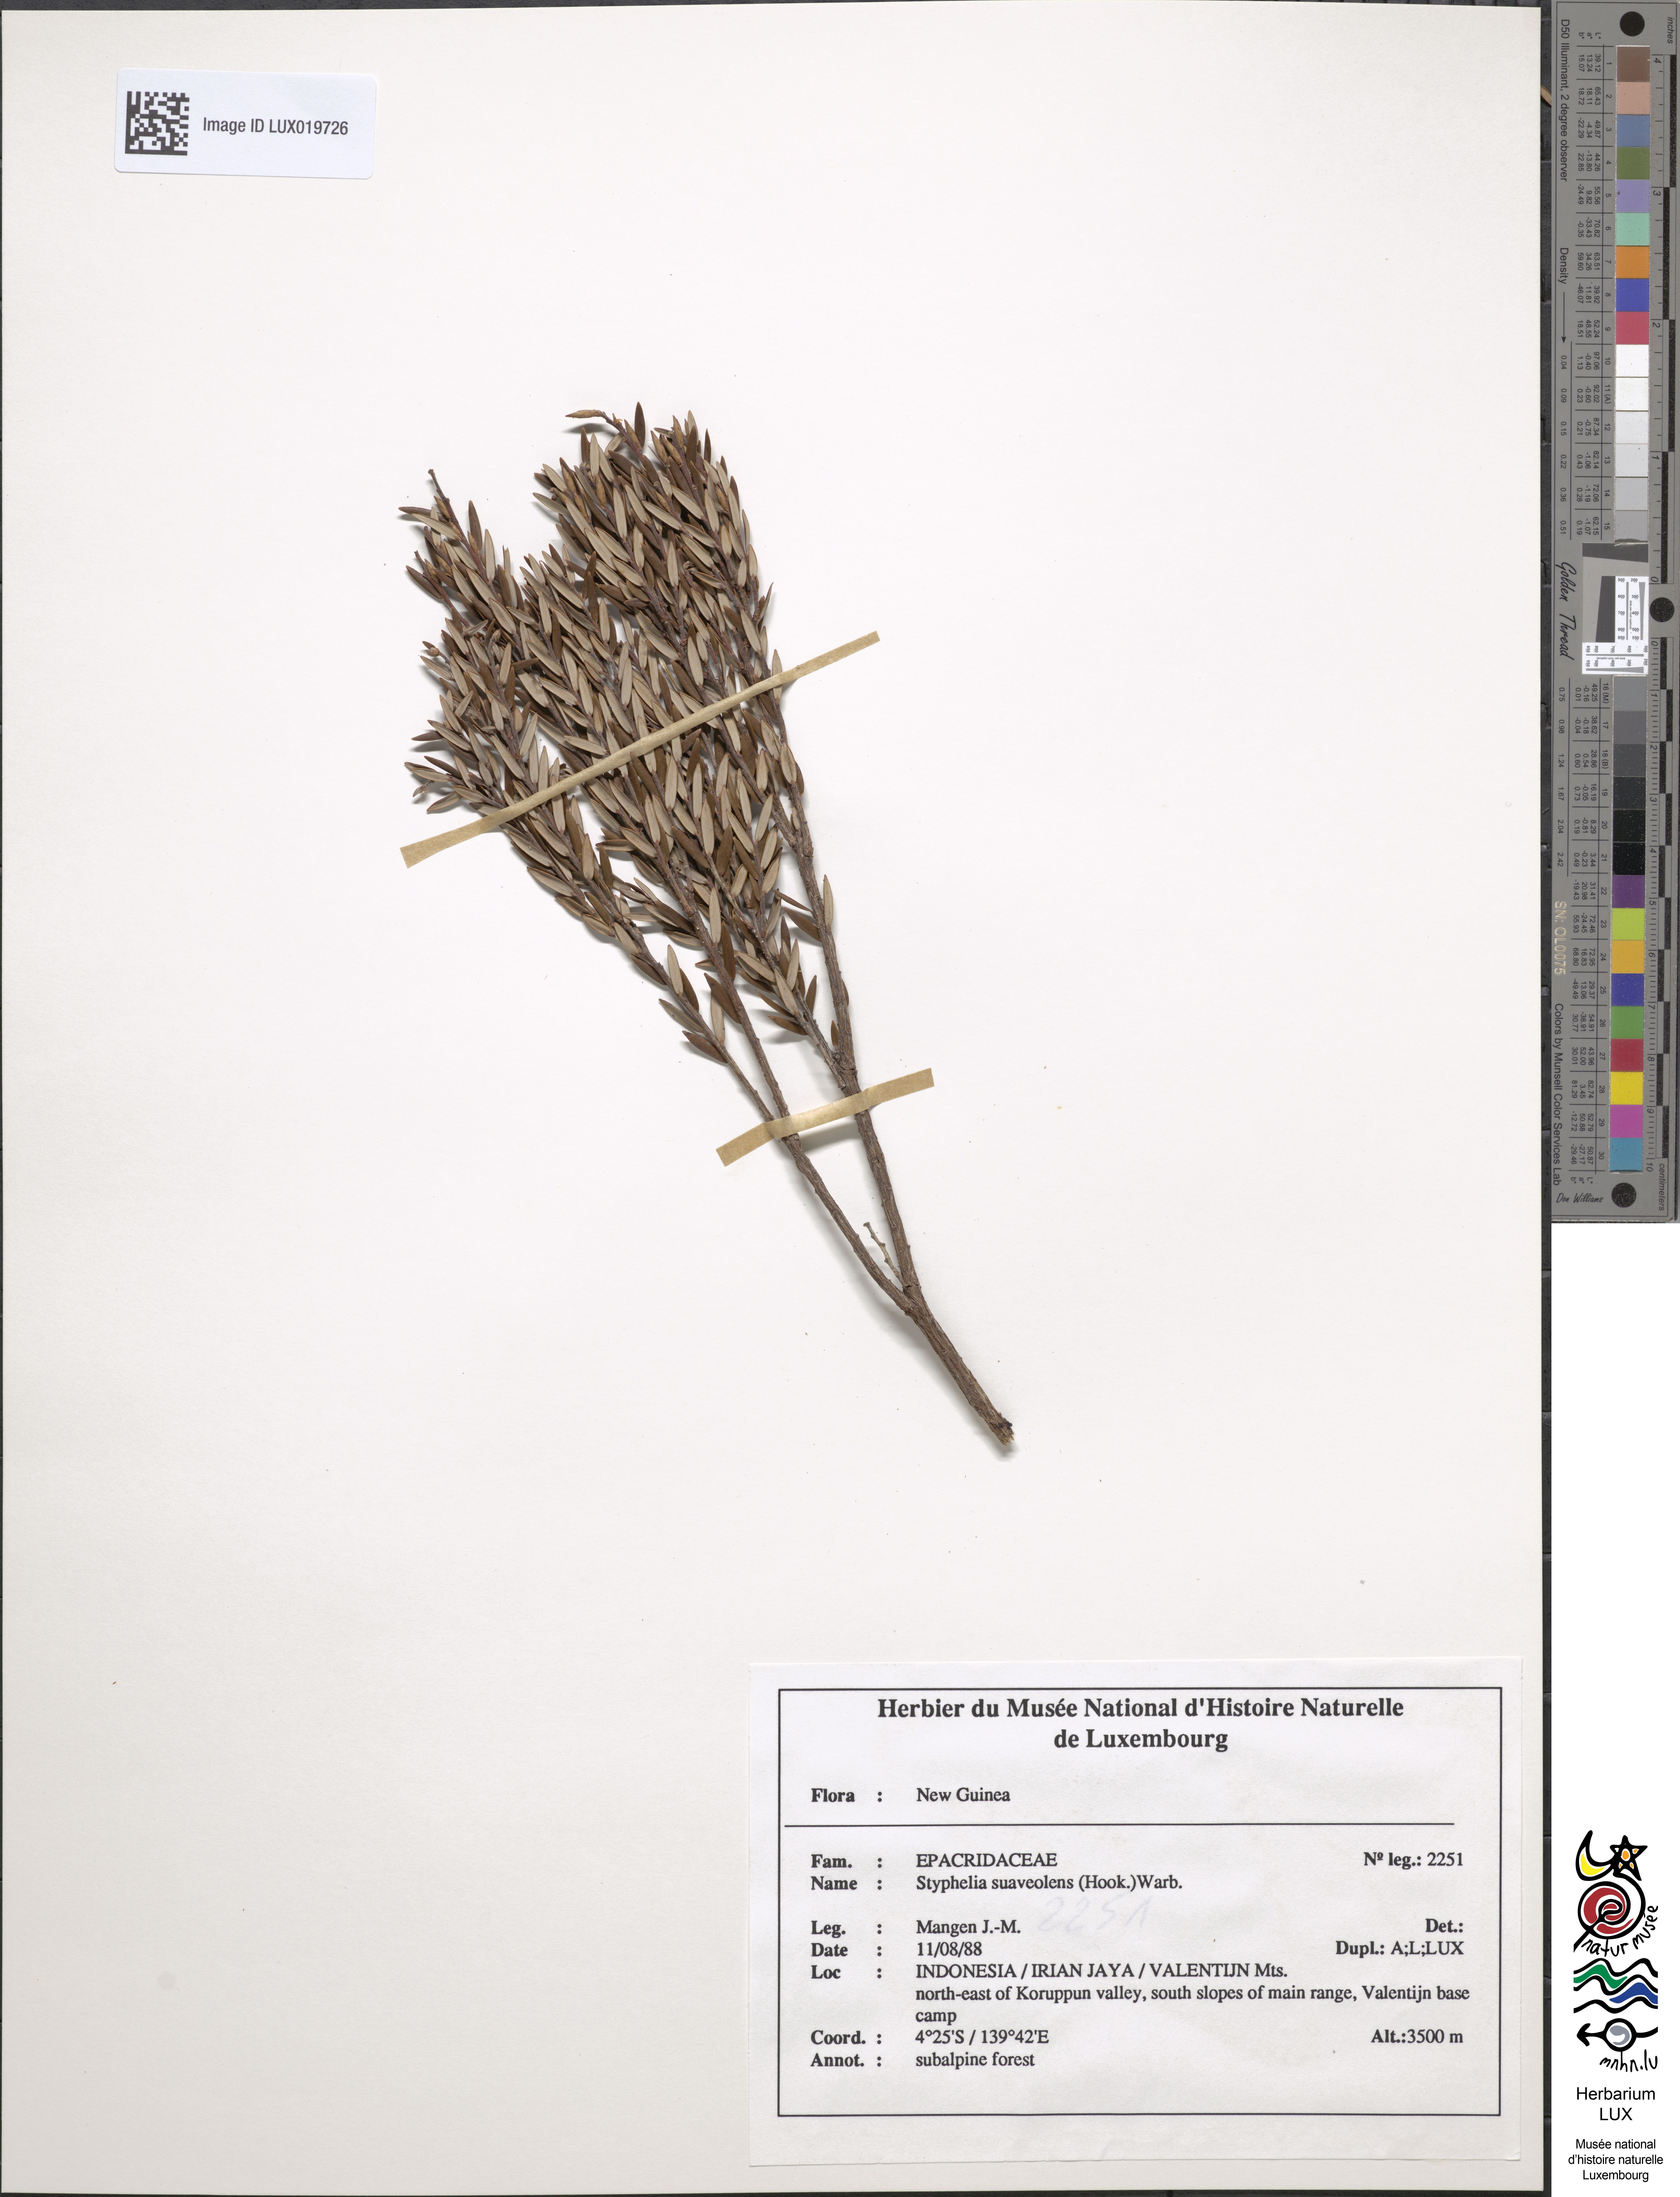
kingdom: Plantae
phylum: Tracheophyta
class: Magnoliopsida
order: Ericales
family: Ericaceae
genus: Acrothamnus
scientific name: Acrothamnus suaveolens
